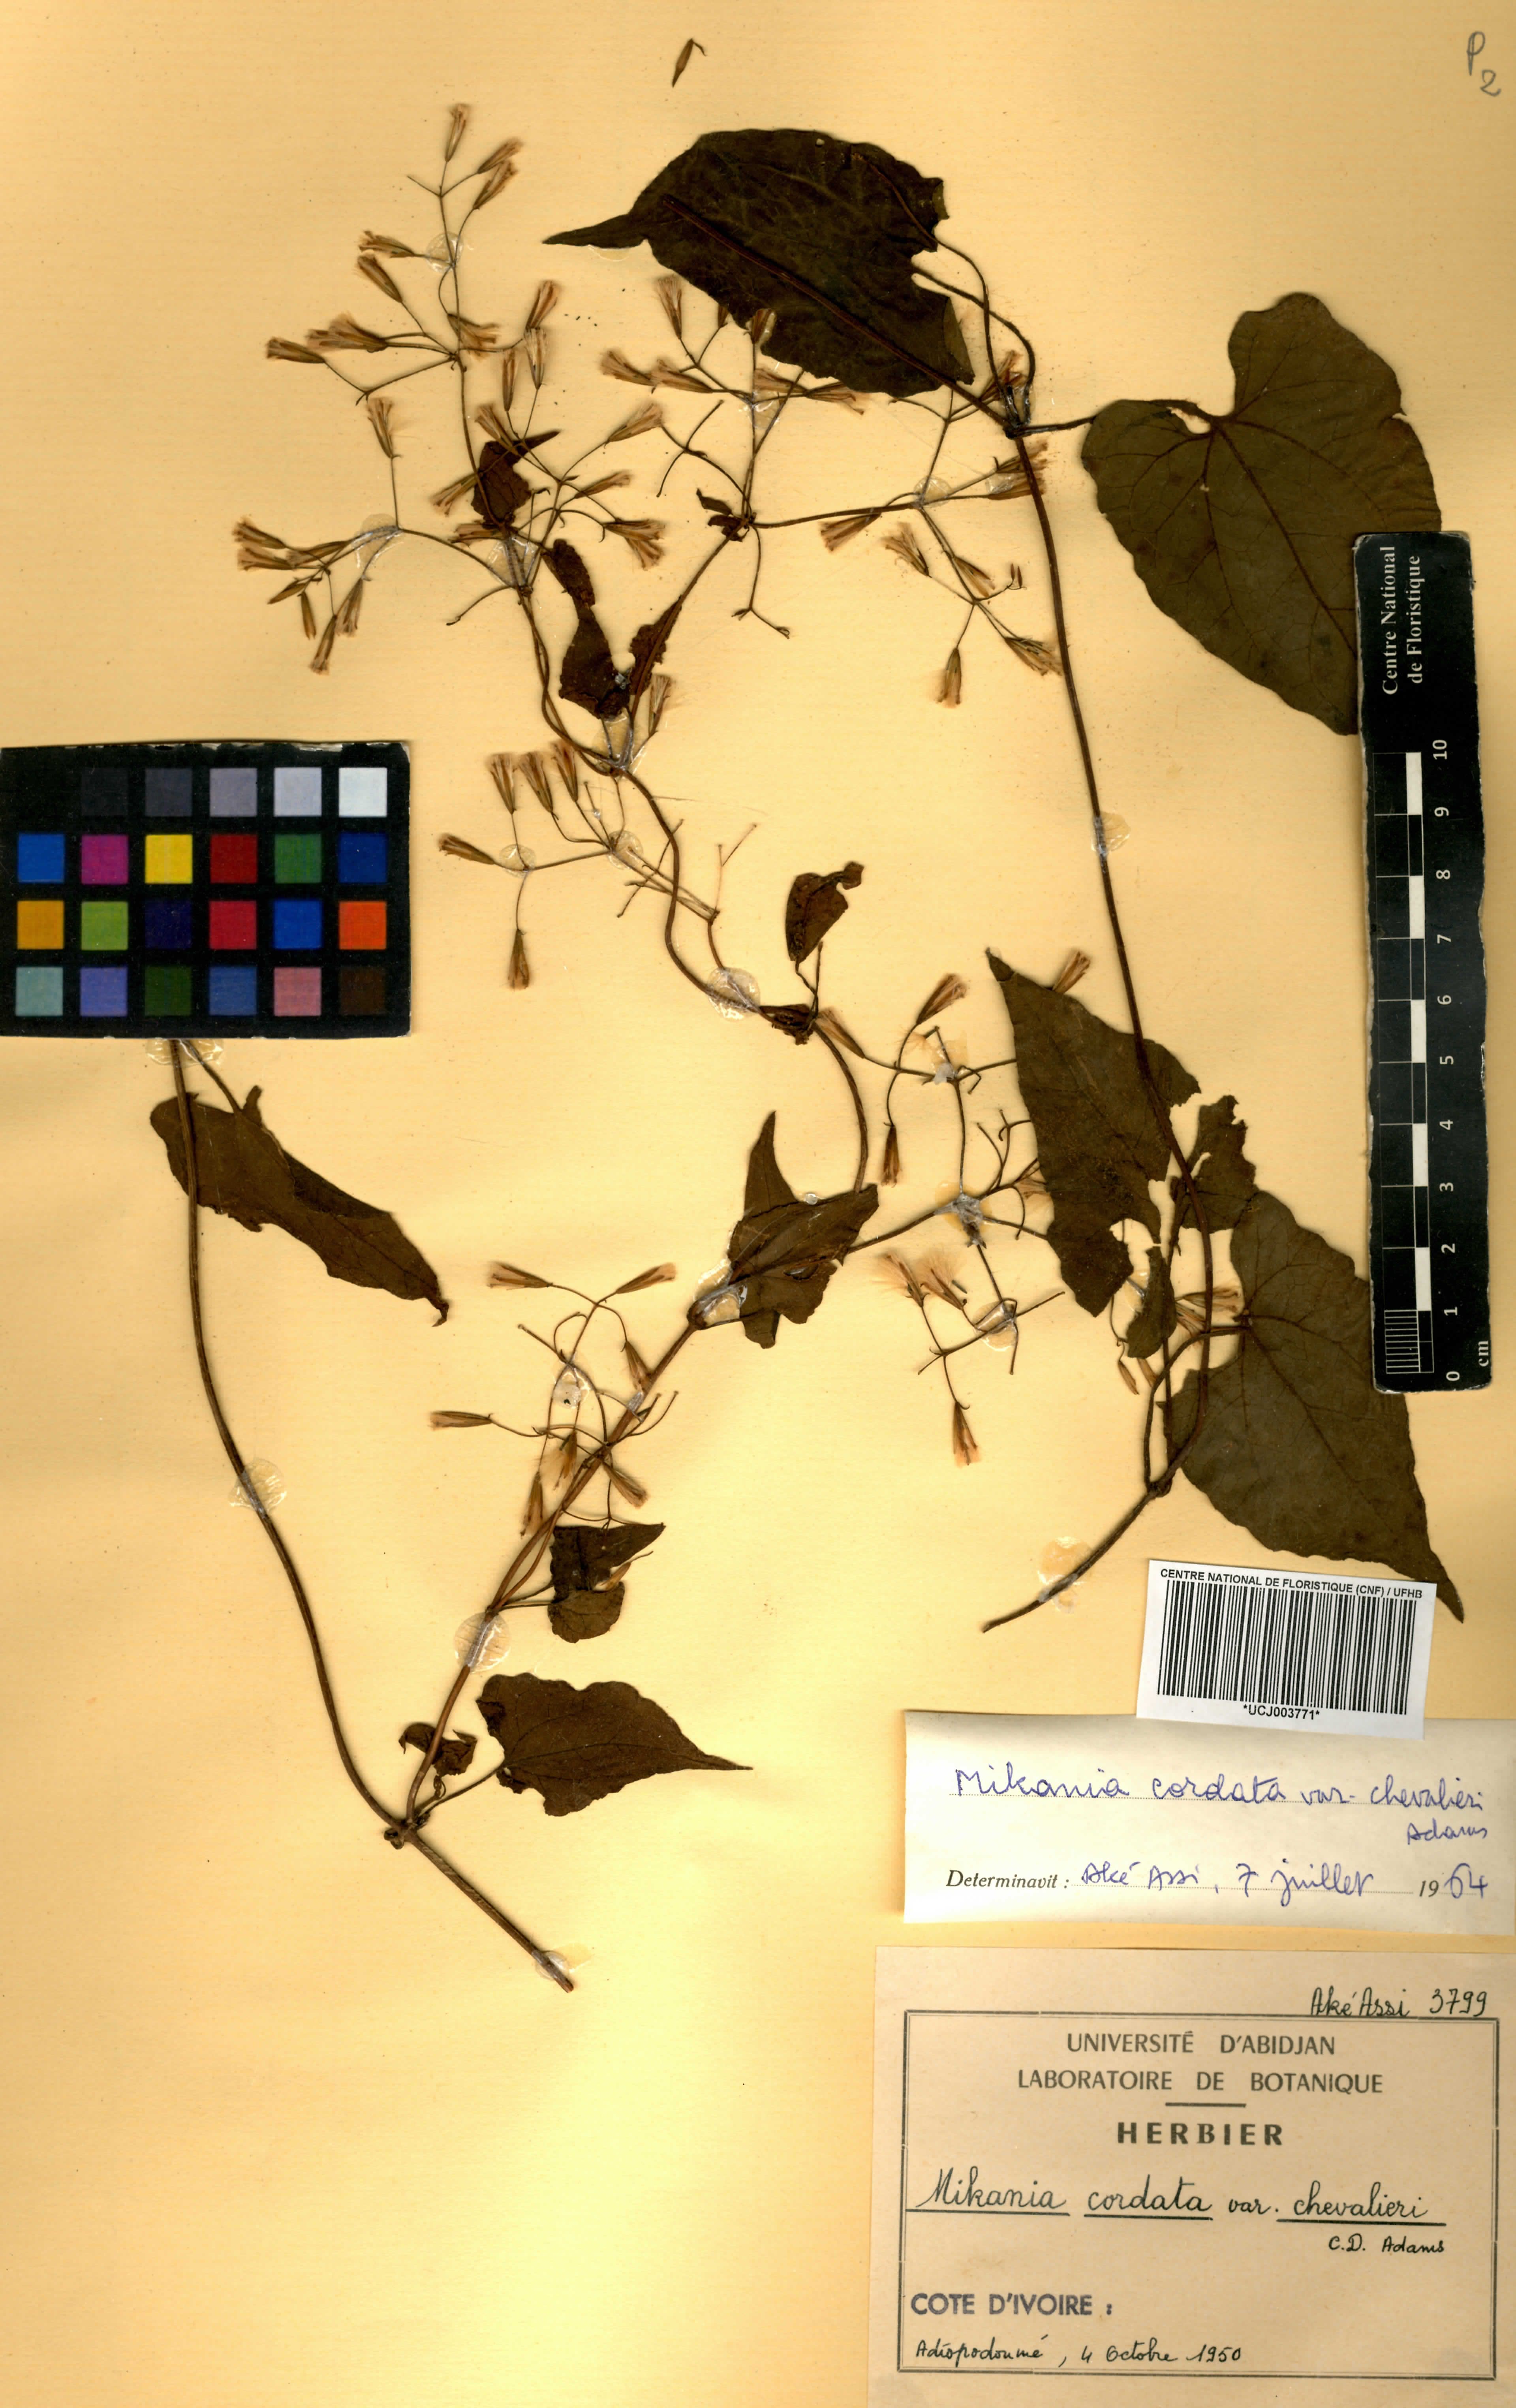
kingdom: Plantae
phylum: Tracheophyta
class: Magnoliopsida
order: Asterales
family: Asteraceae
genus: Mikania
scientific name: Mikania chevalieri
